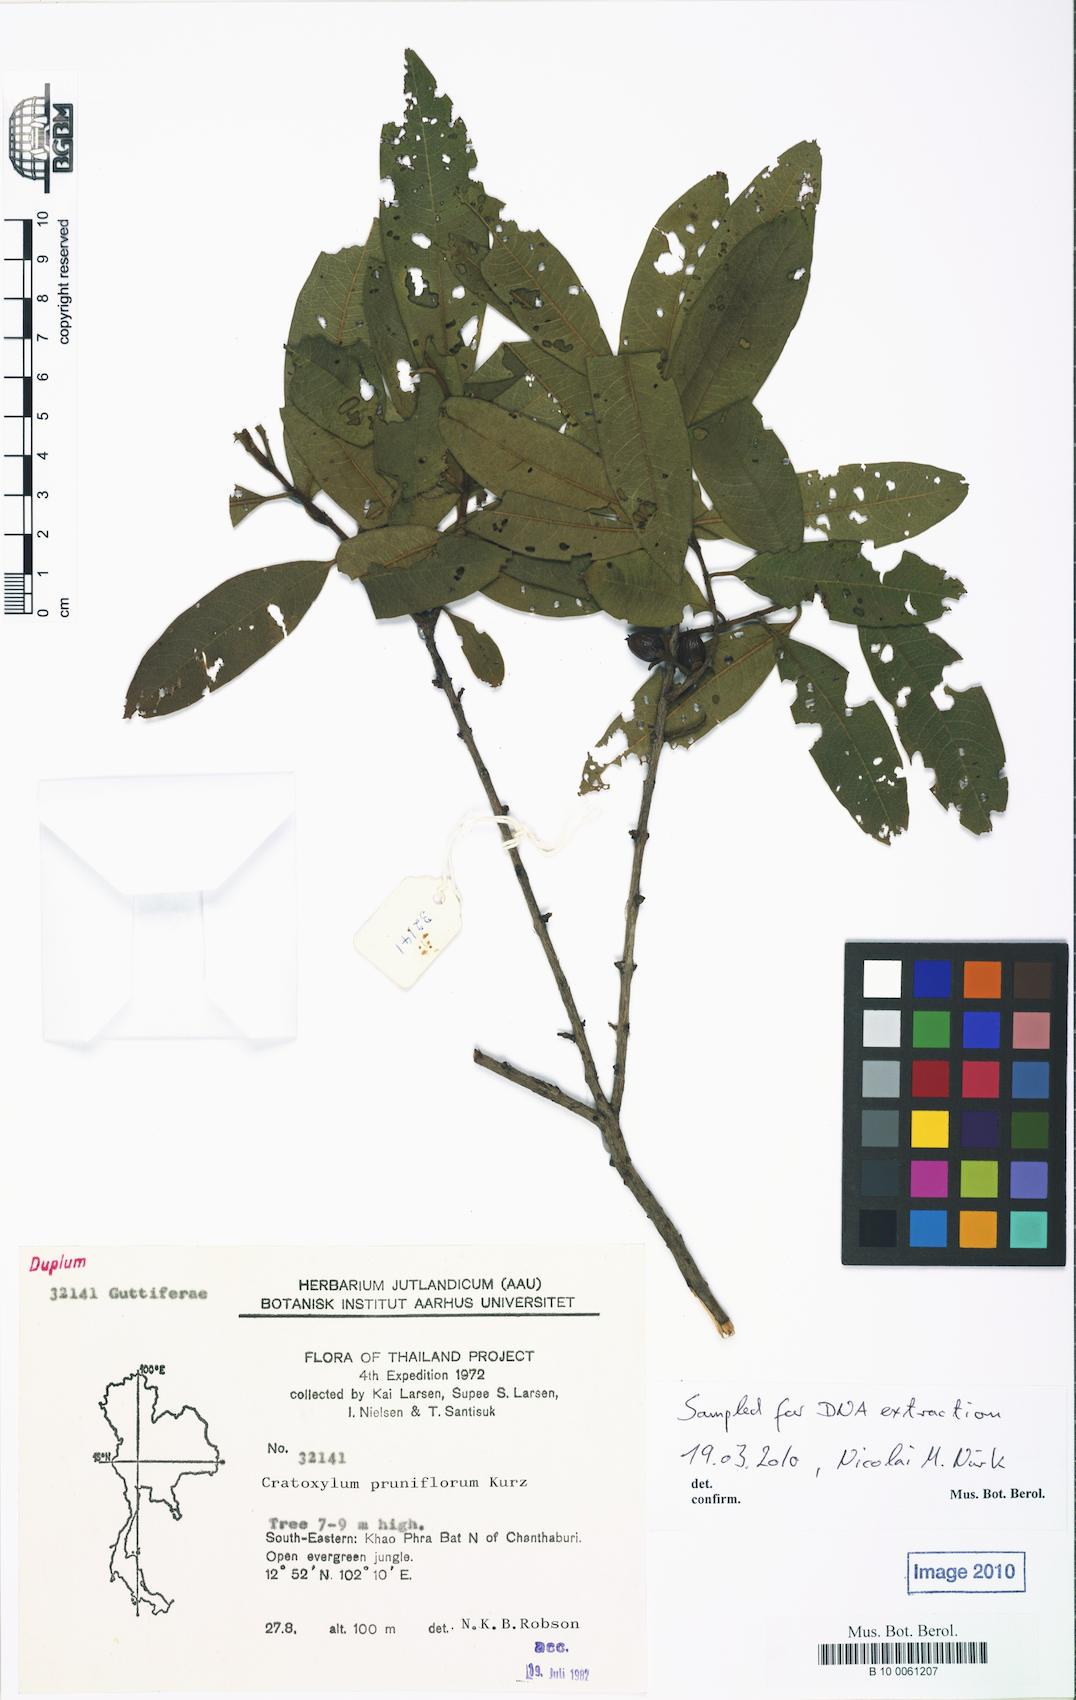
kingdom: Plantae
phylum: Tracheophyta
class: Magnoliopsida
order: Malpighiales
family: Hypericaceae
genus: Cratoxylum
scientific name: Cratoxylum formosum
